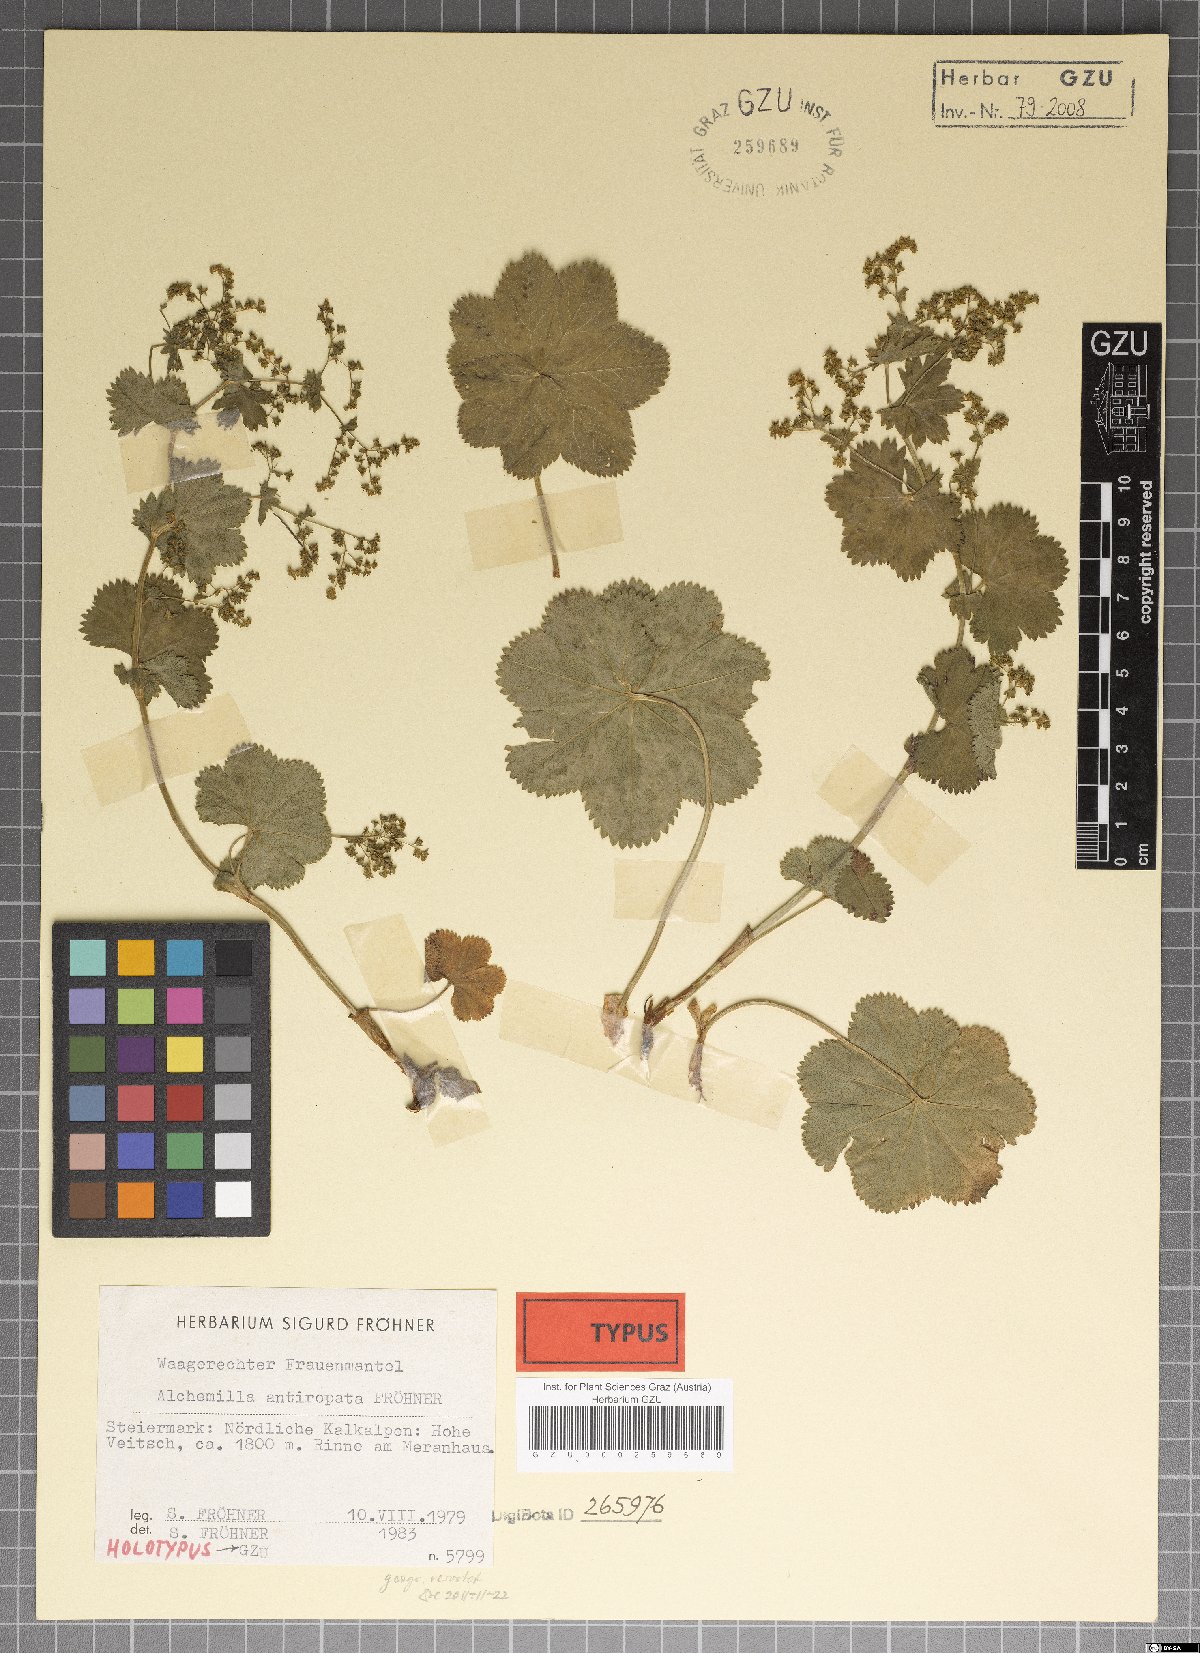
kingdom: Plantae
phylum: Tracheophyta
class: Magnoliopsida
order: Rosales
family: Rosaceae
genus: Alchemilla
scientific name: Alchemilla antiropata
